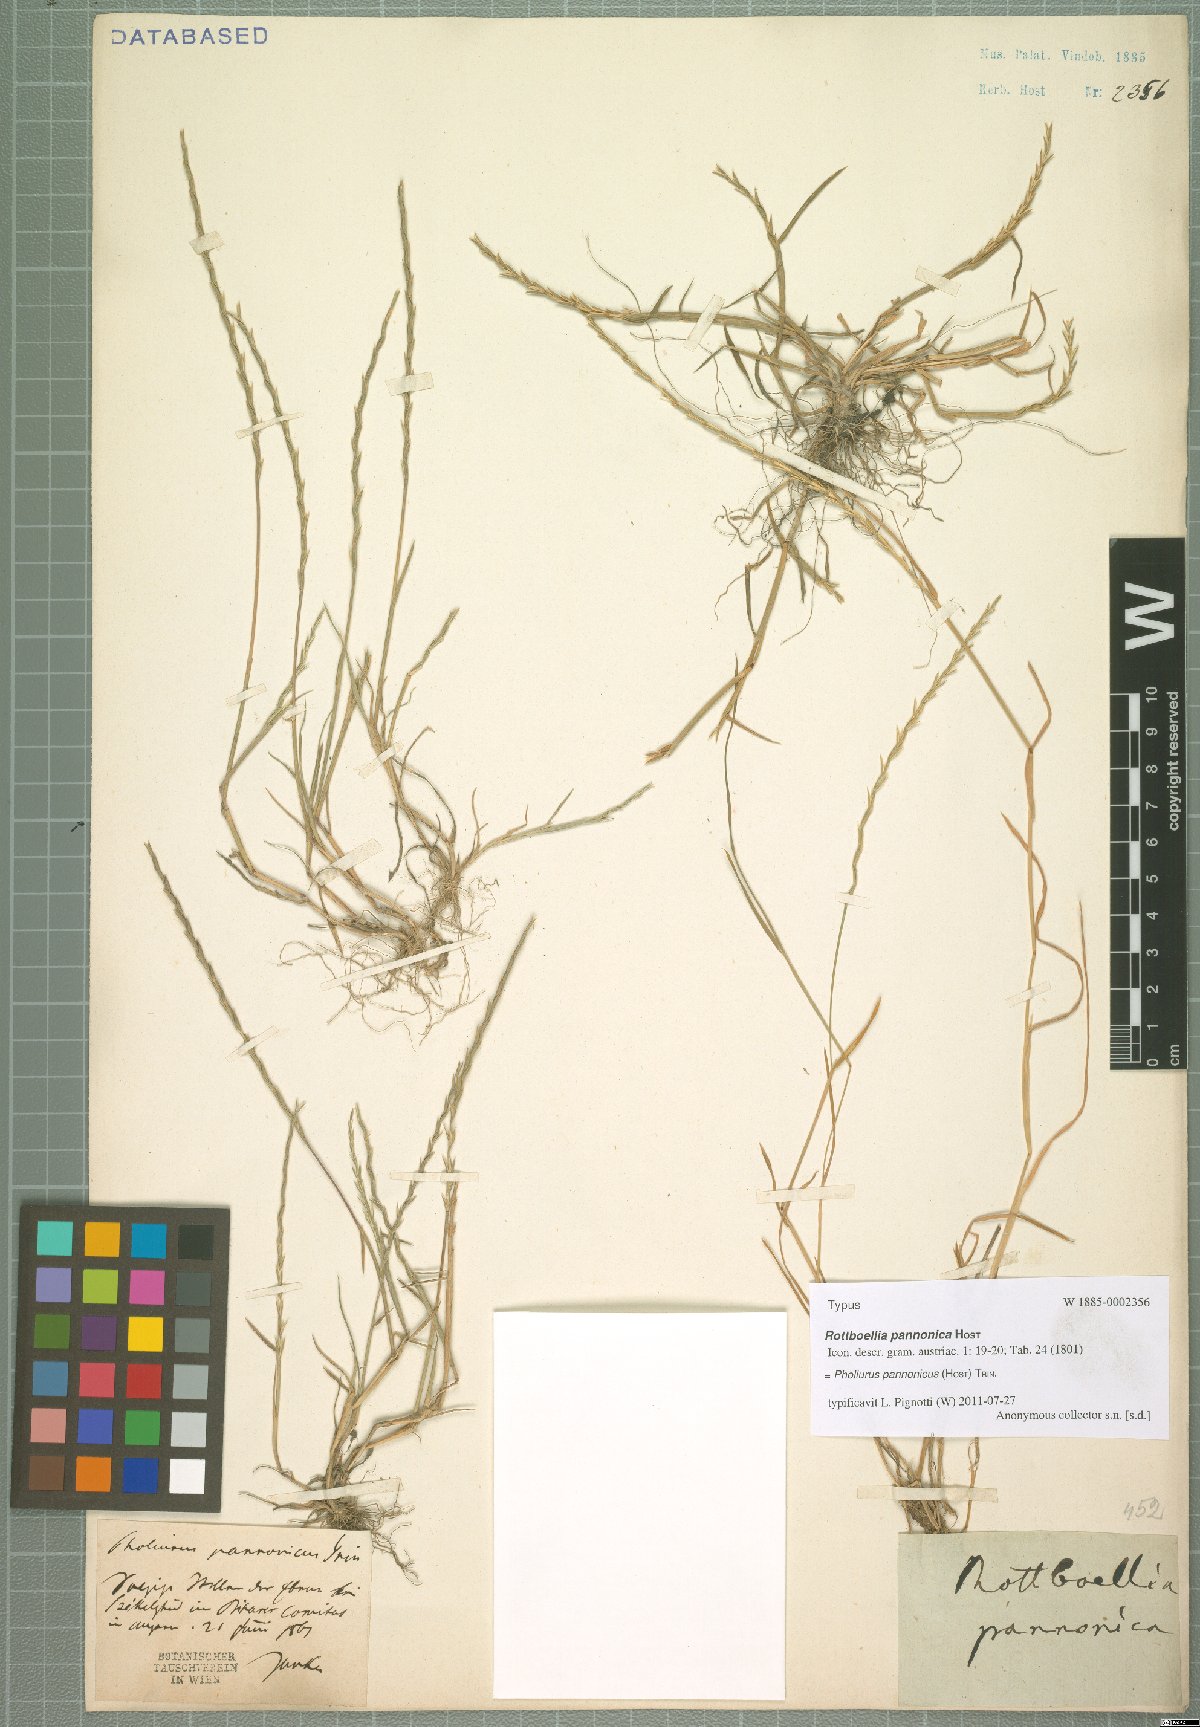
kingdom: Plantae
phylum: Tracheophyta
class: Liliopsida
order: Poales
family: Poaceae
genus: Pholiurus
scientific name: Pholiurus pannonicus
